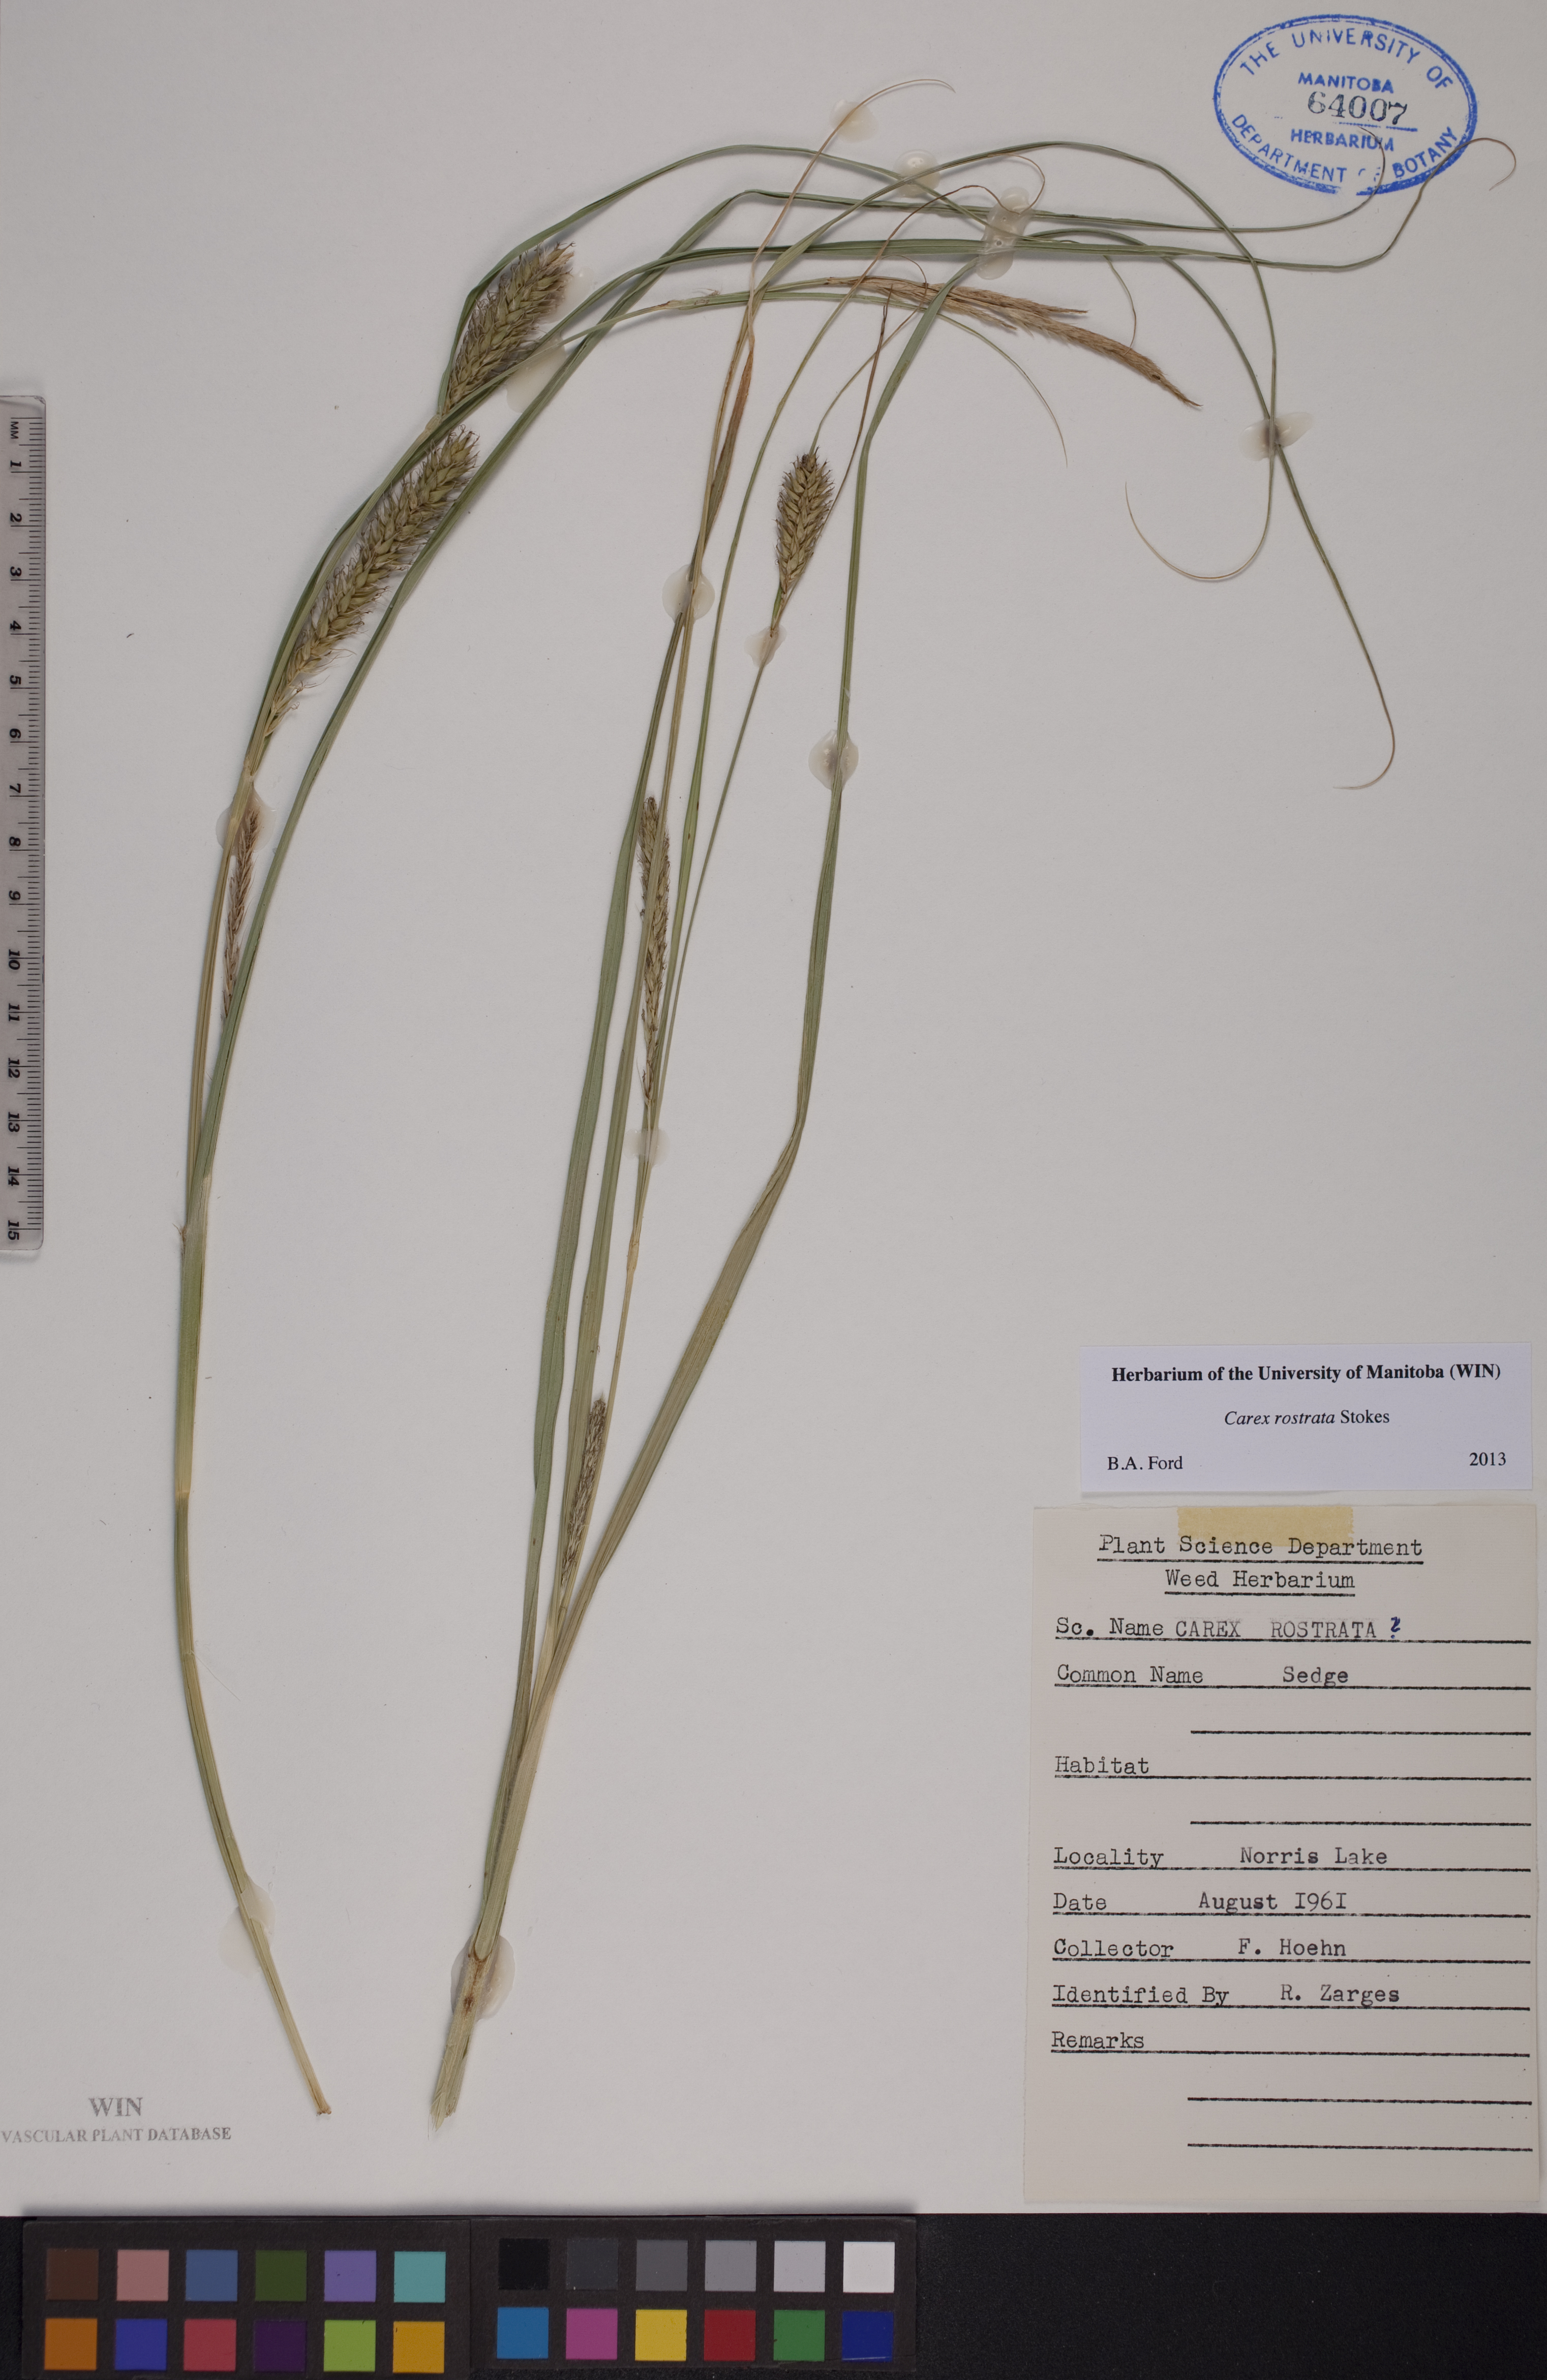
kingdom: Plantae
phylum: Tracheophyta
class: Liliopsida
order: Poales
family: Cyperaceae
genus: Carex
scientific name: Carex rostrata
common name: Bottle sedge
